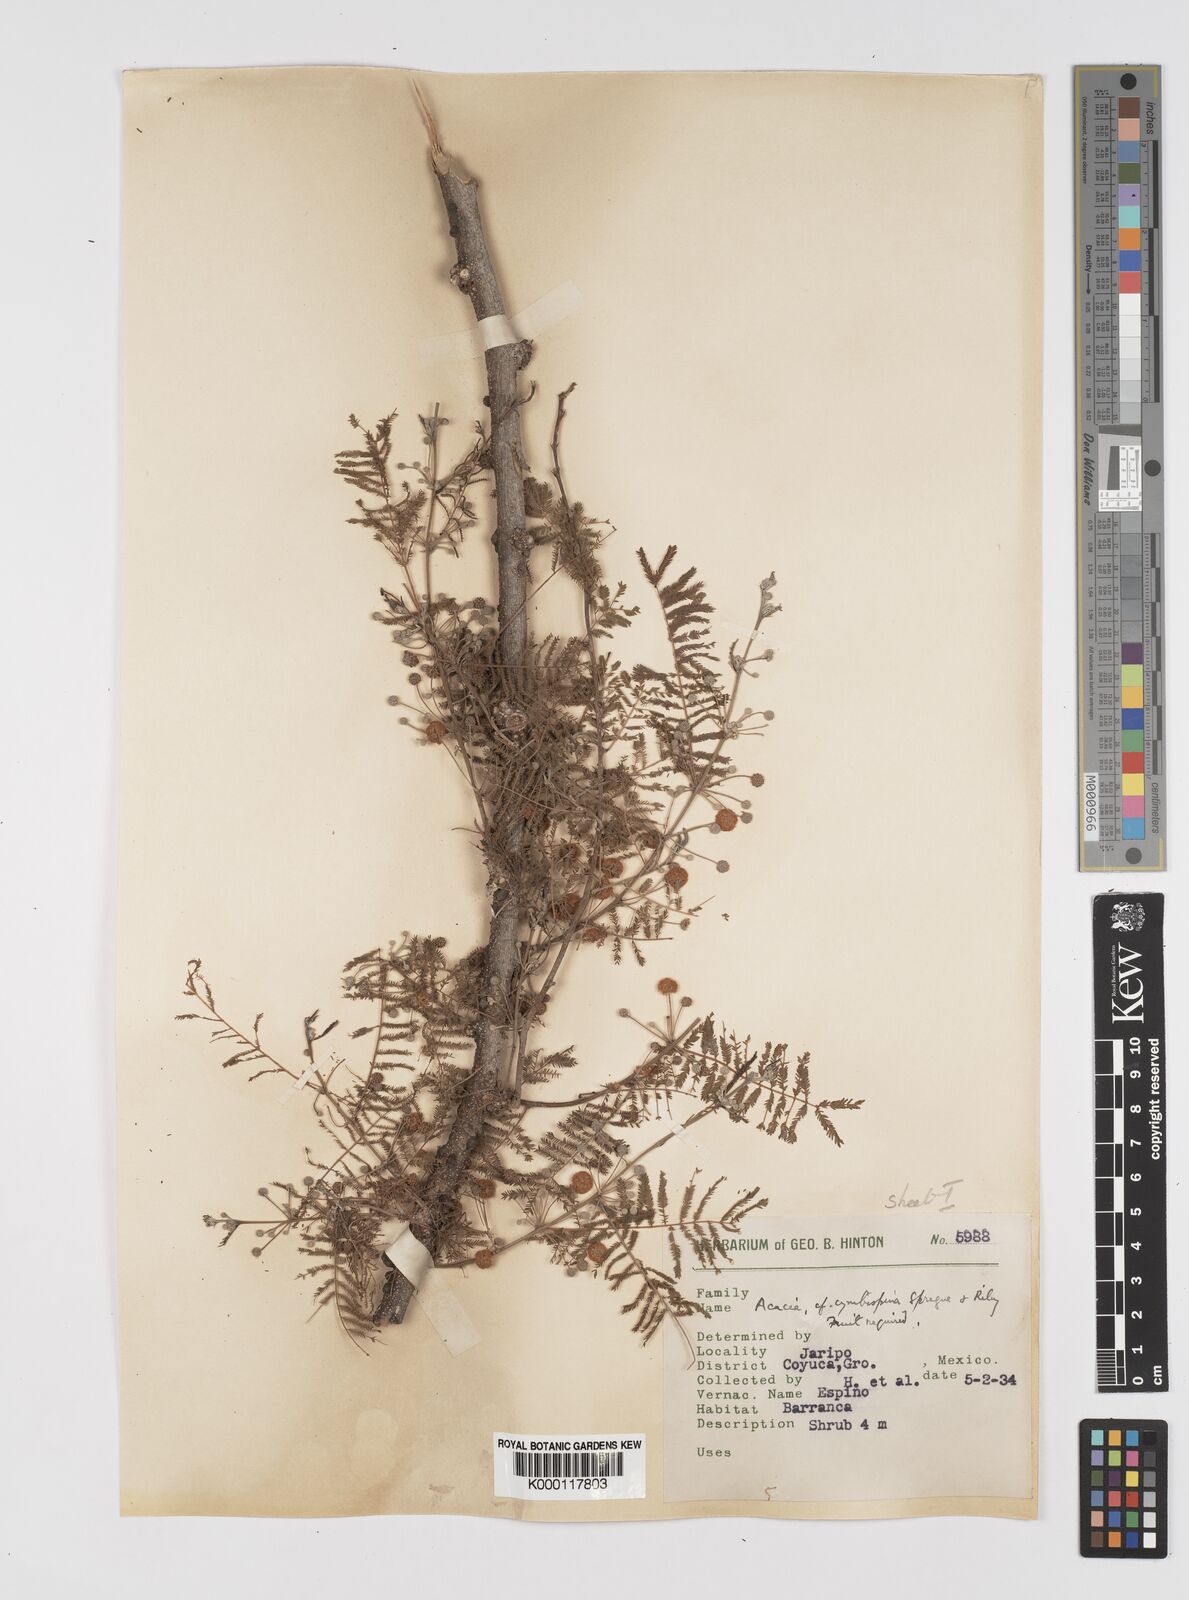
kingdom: Plantae
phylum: Tracheophyta
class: Magnoliopsida
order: Fabales
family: Fabaceae
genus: Vachellia
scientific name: Vachellia campeachiana
